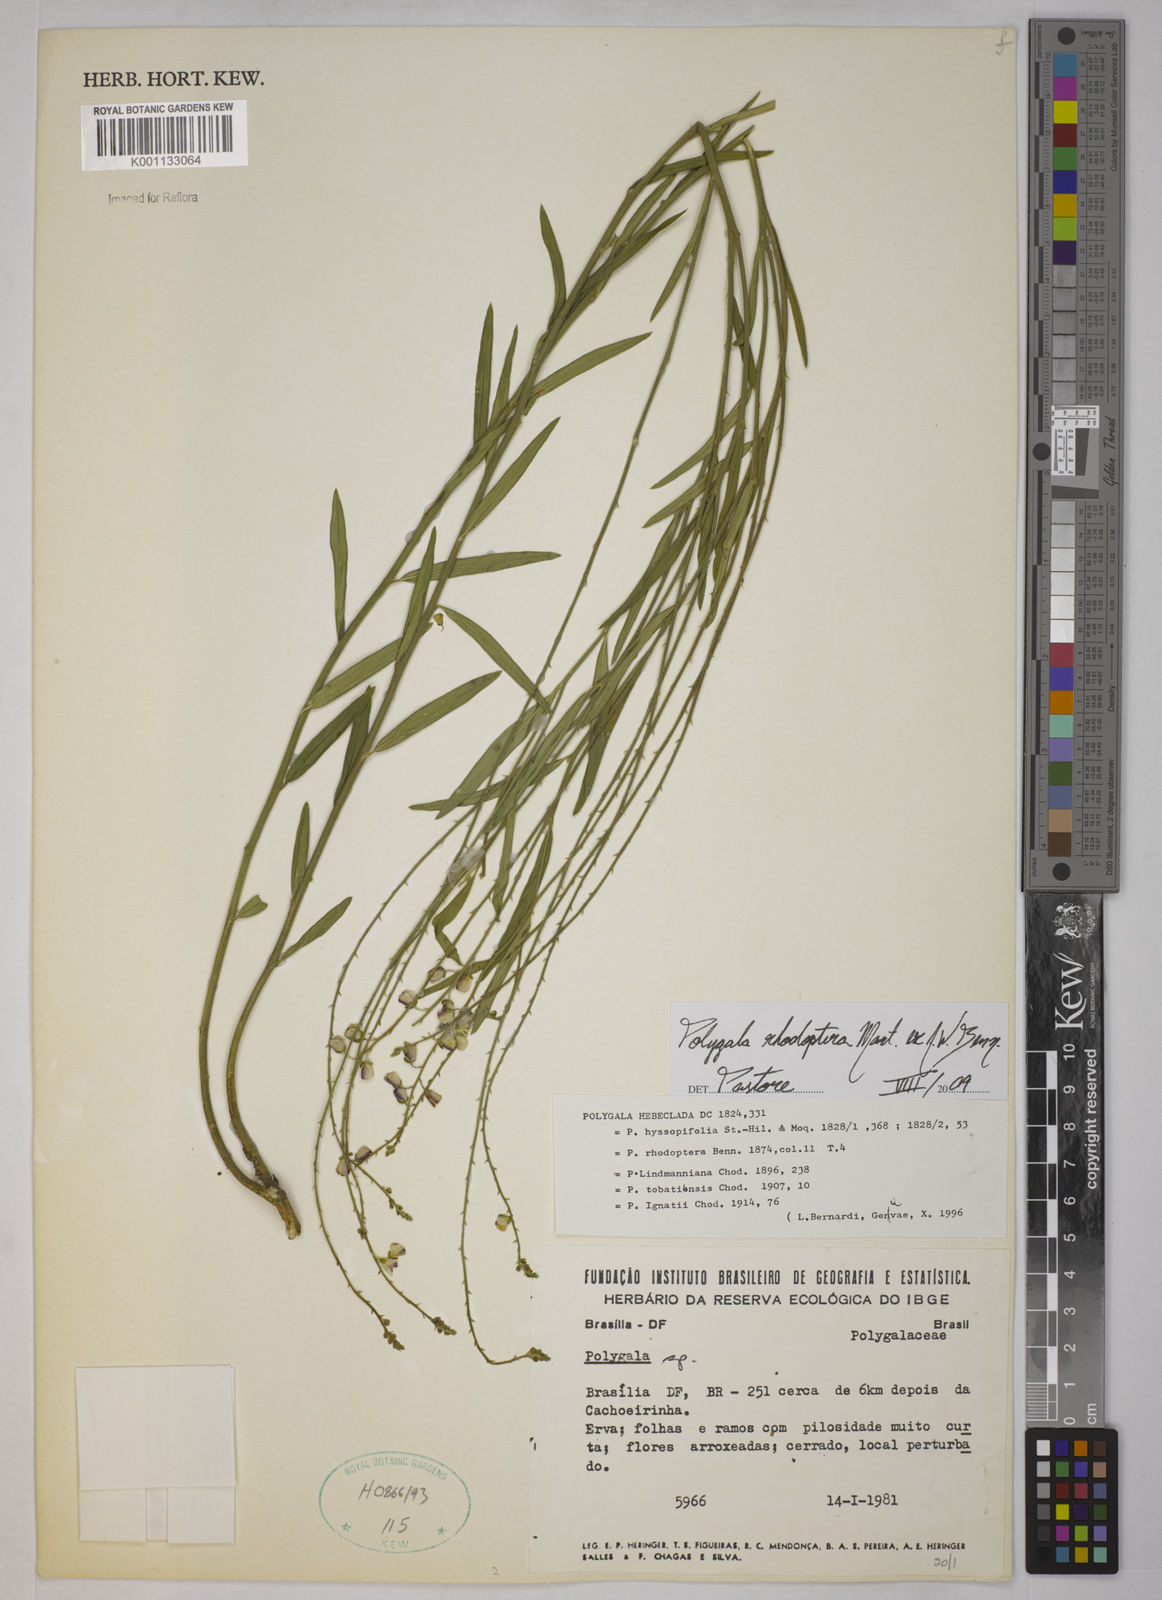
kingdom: Plantae
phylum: Tracheophyta
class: Magnoliopsida
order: Fabales
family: Polygalaceae
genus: Asemeia
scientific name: Asemeia rhodoptera
